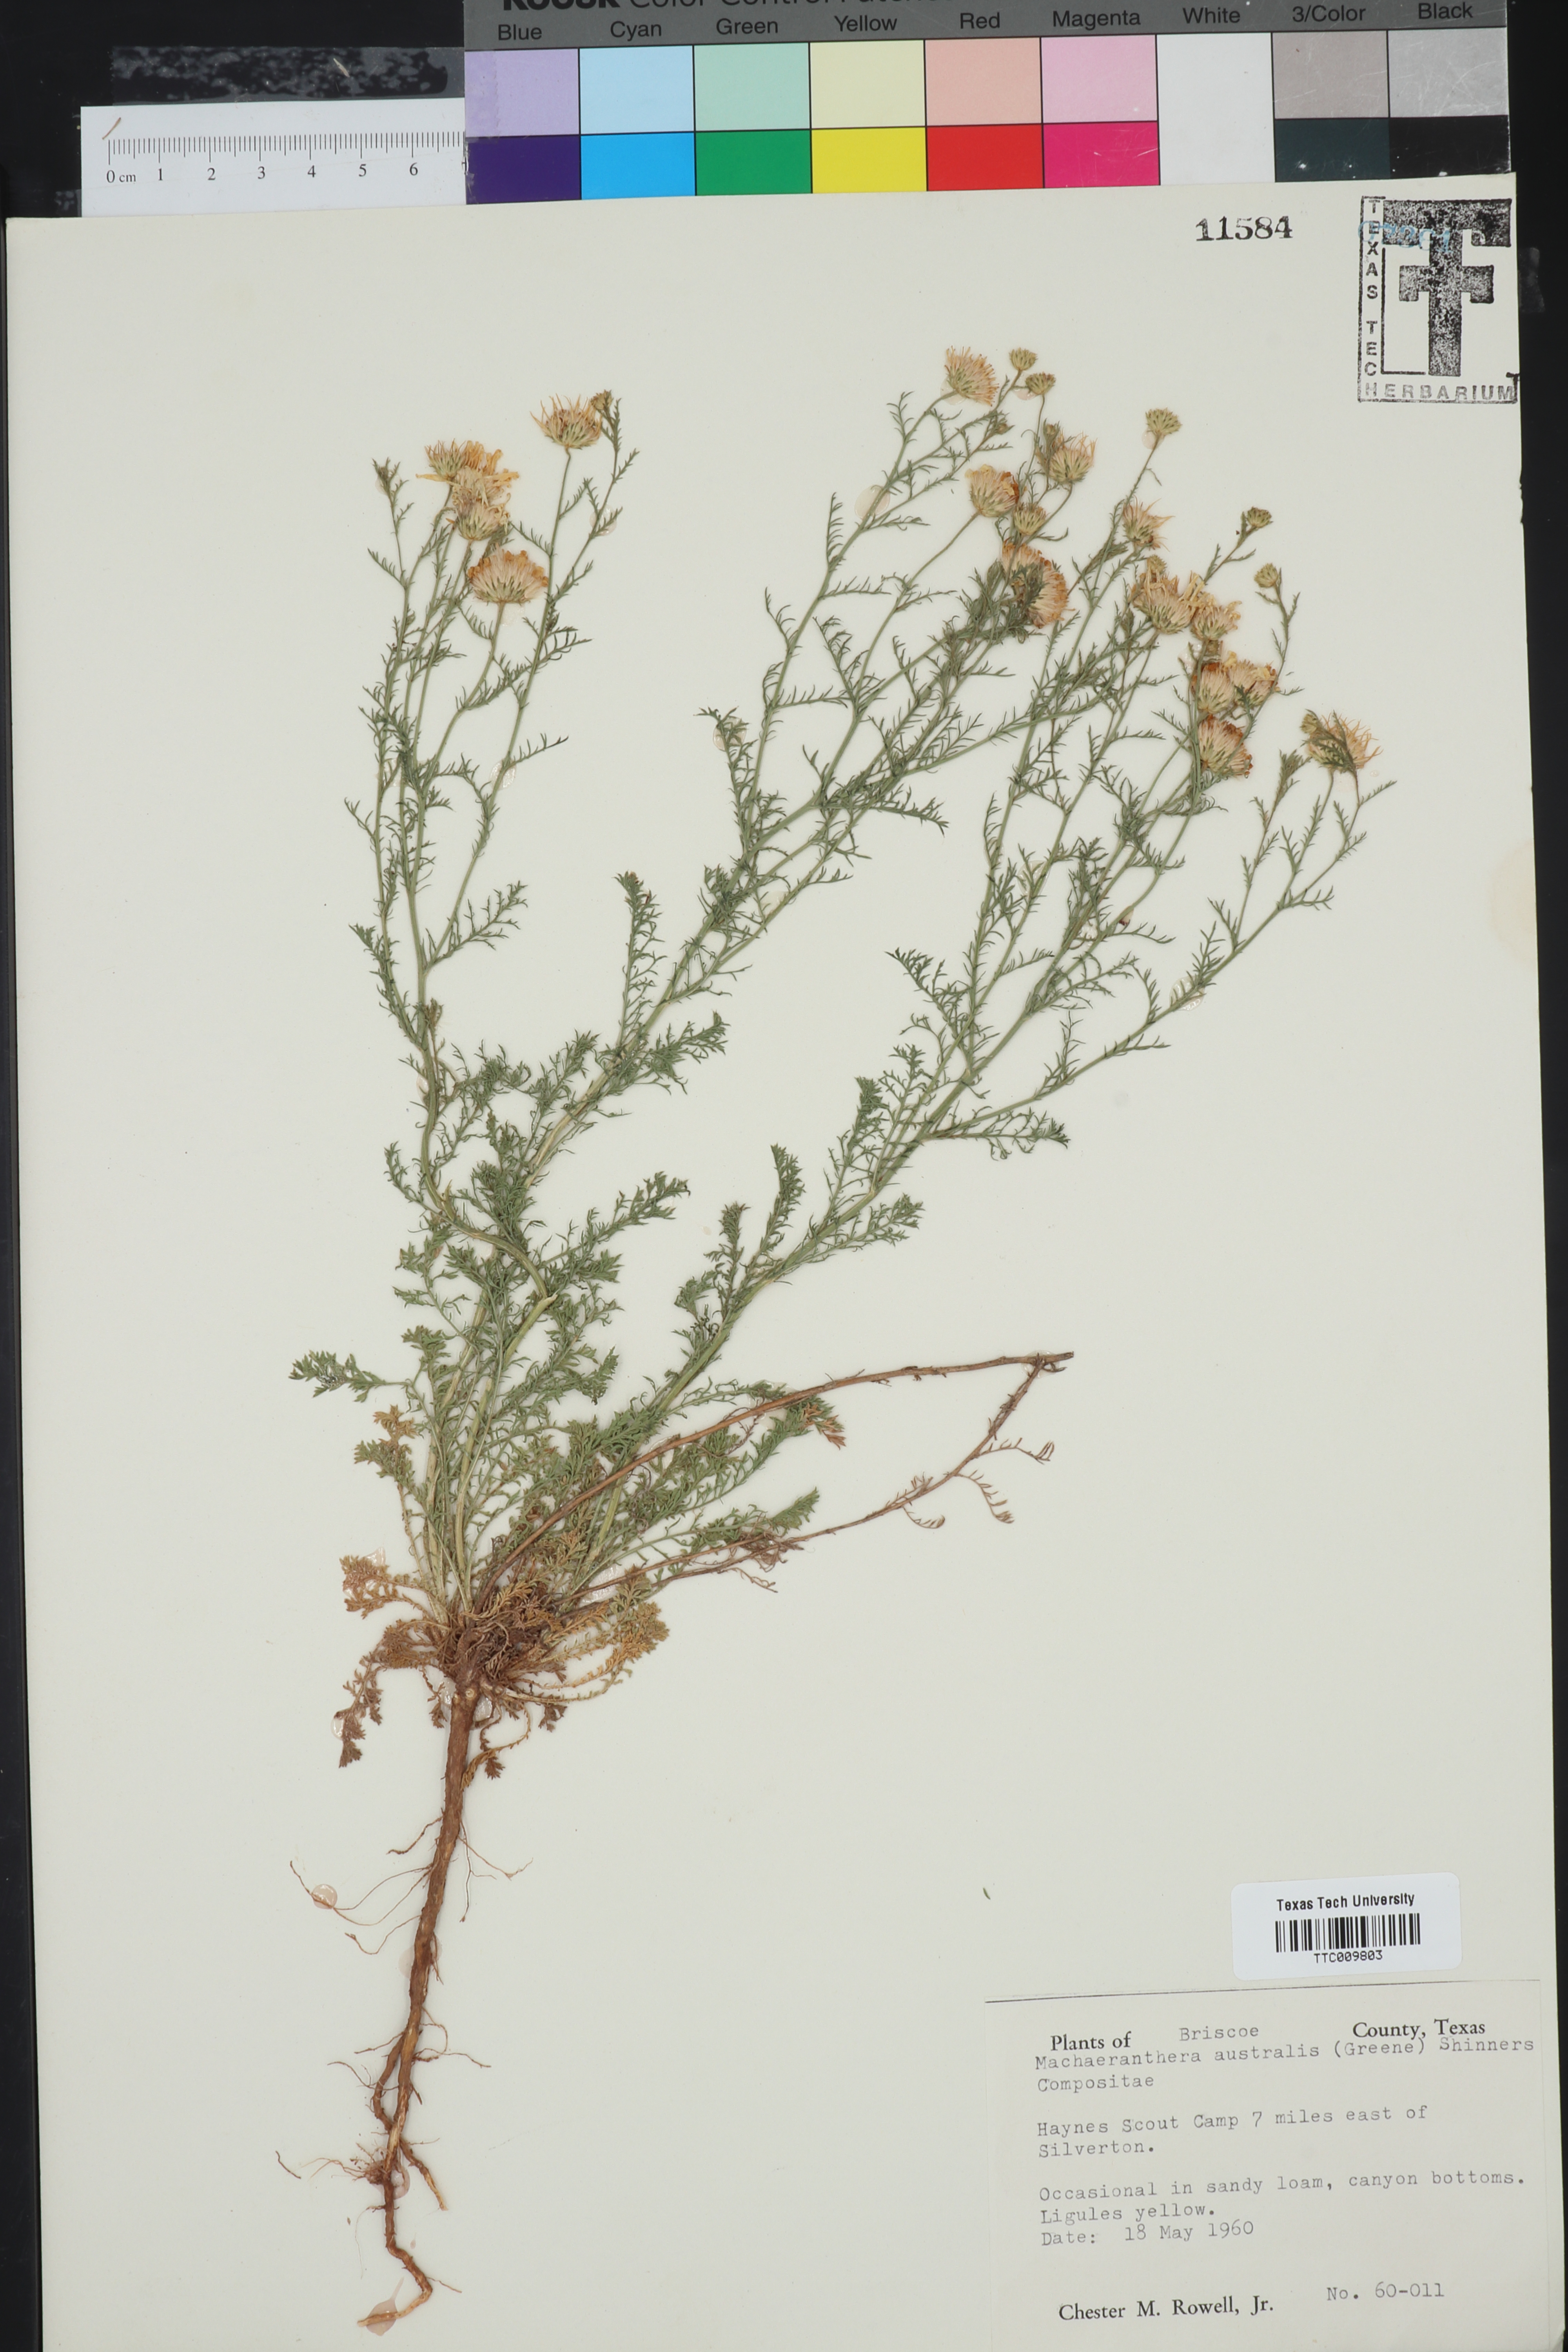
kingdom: Plantae
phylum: Tracheophyta
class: Magnoliopsida
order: Asterales
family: Asteraceae
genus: Xanthisma
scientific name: Xanthisma spinulosum
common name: Spiny goldenweed
